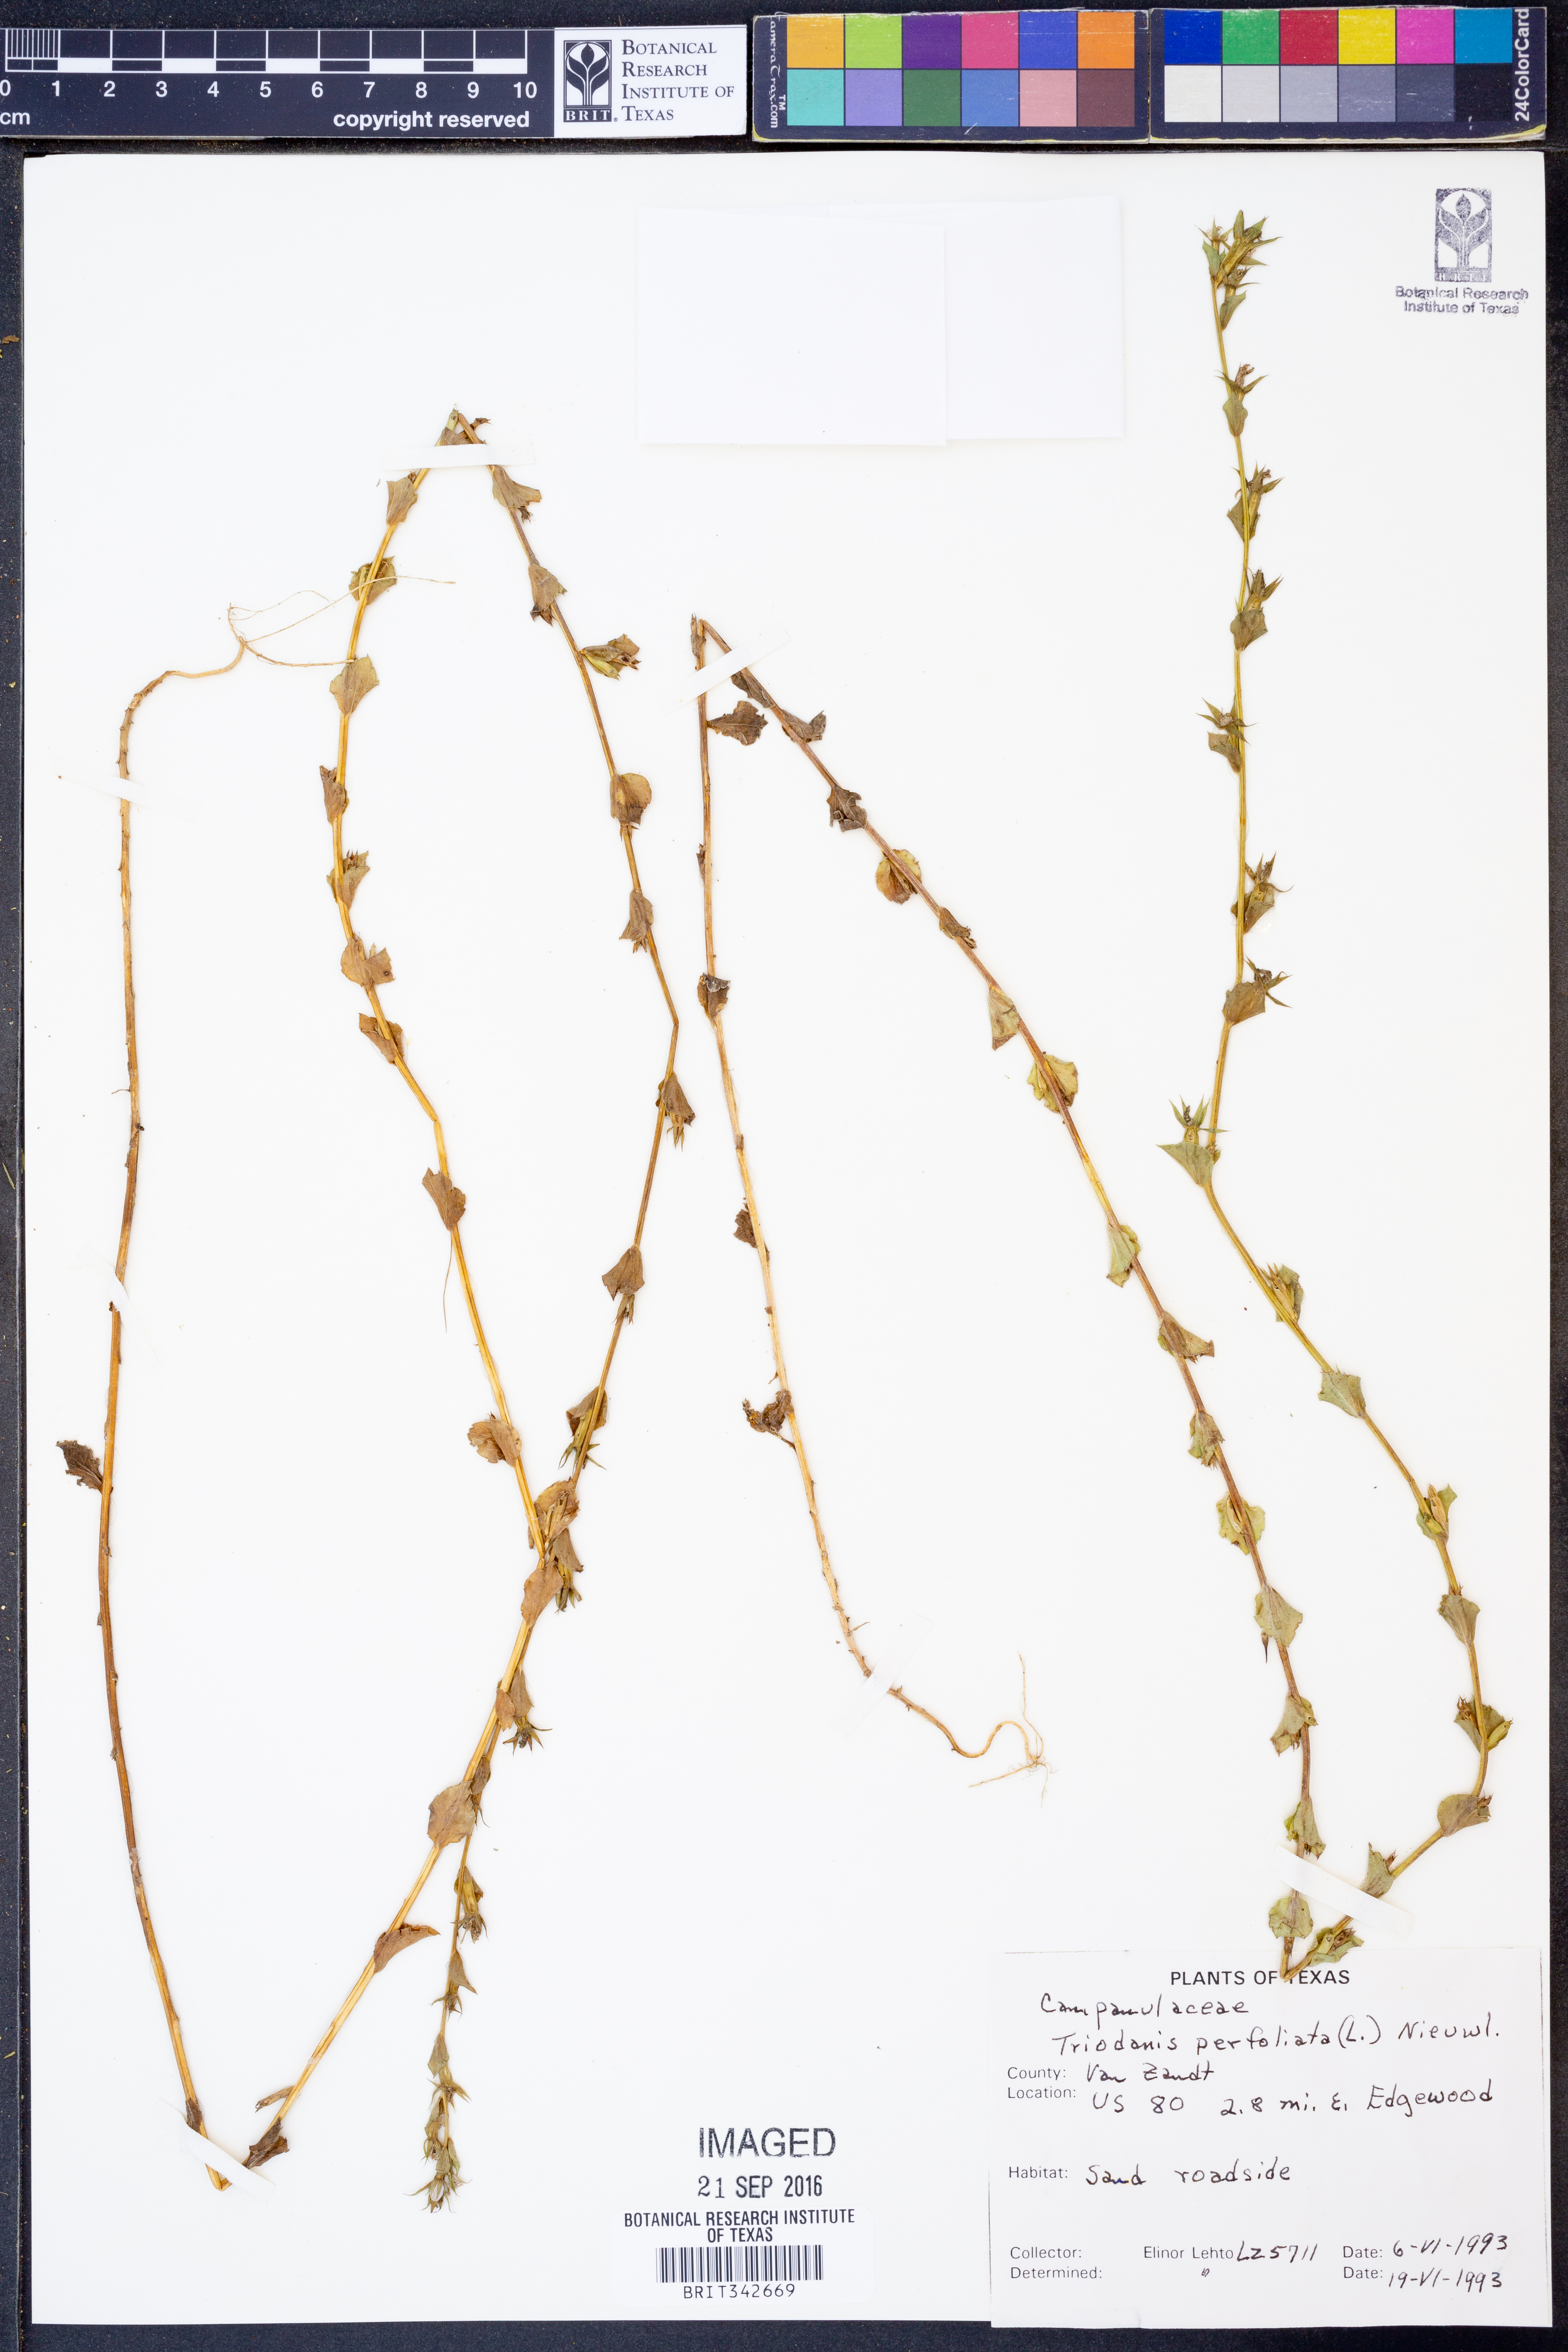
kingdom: Plantae
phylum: Tracheophyta
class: Magnoliopsida
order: Asterales
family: Campanulaceae
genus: Triodanis
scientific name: Triodanis perfoliata
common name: Clasping venus' looking-glass
